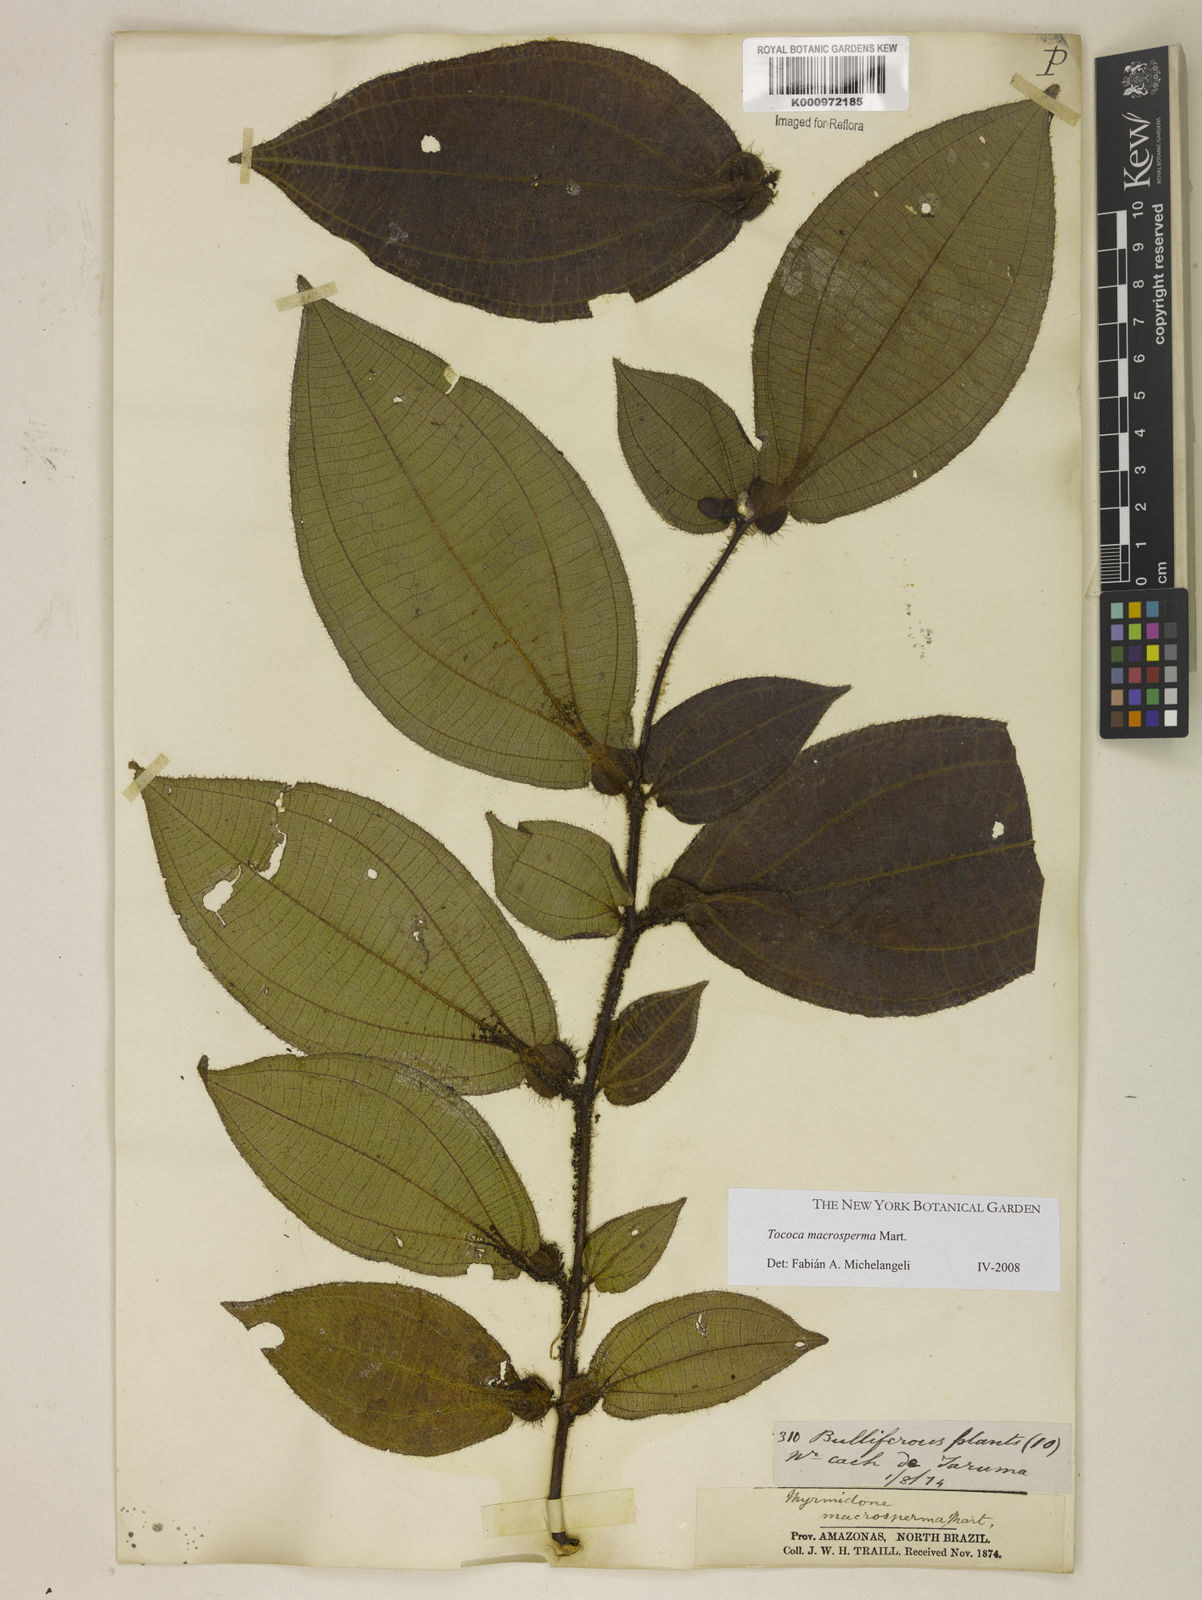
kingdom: Plantae
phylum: Tracheophyta
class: Magnoliopsida
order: Myrtales
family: Melastomataceae
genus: Miconia
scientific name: Miconia macrosperma
